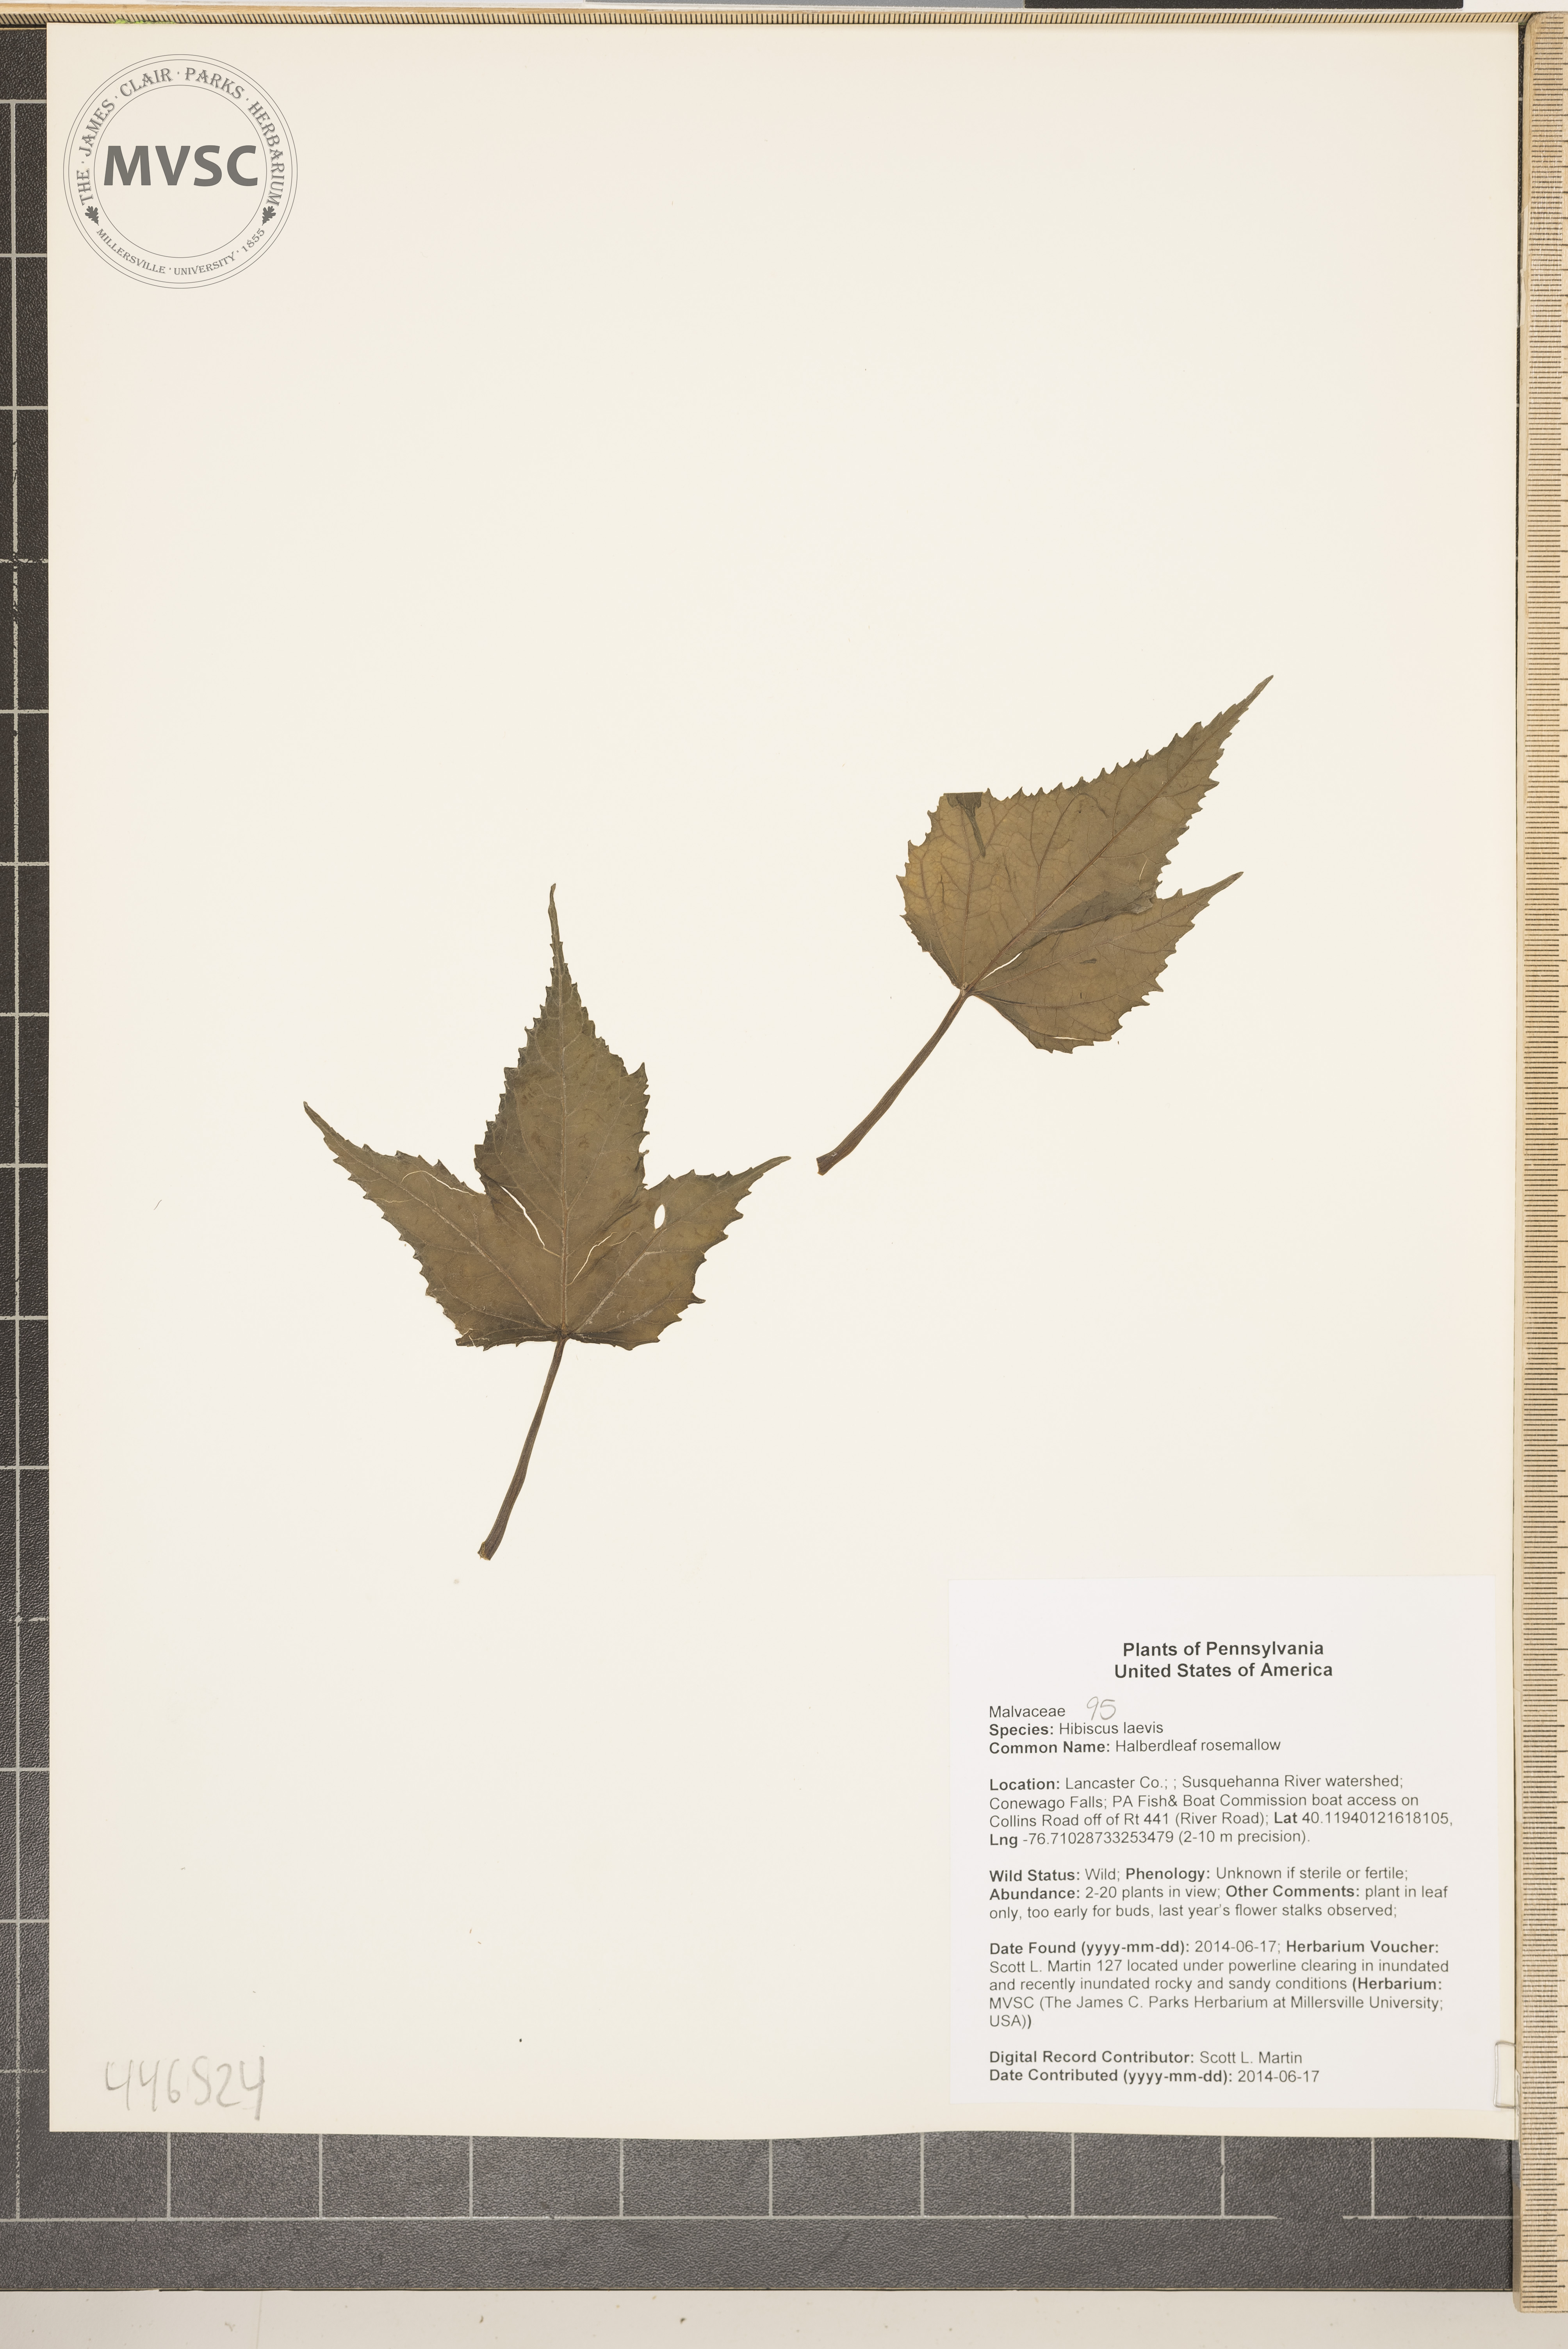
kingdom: Plantae
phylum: Tracheophyta
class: Magnoliopsida
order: Malvales
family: Malvaceae
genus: Hibiscus
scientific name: Hibiscus laevis
